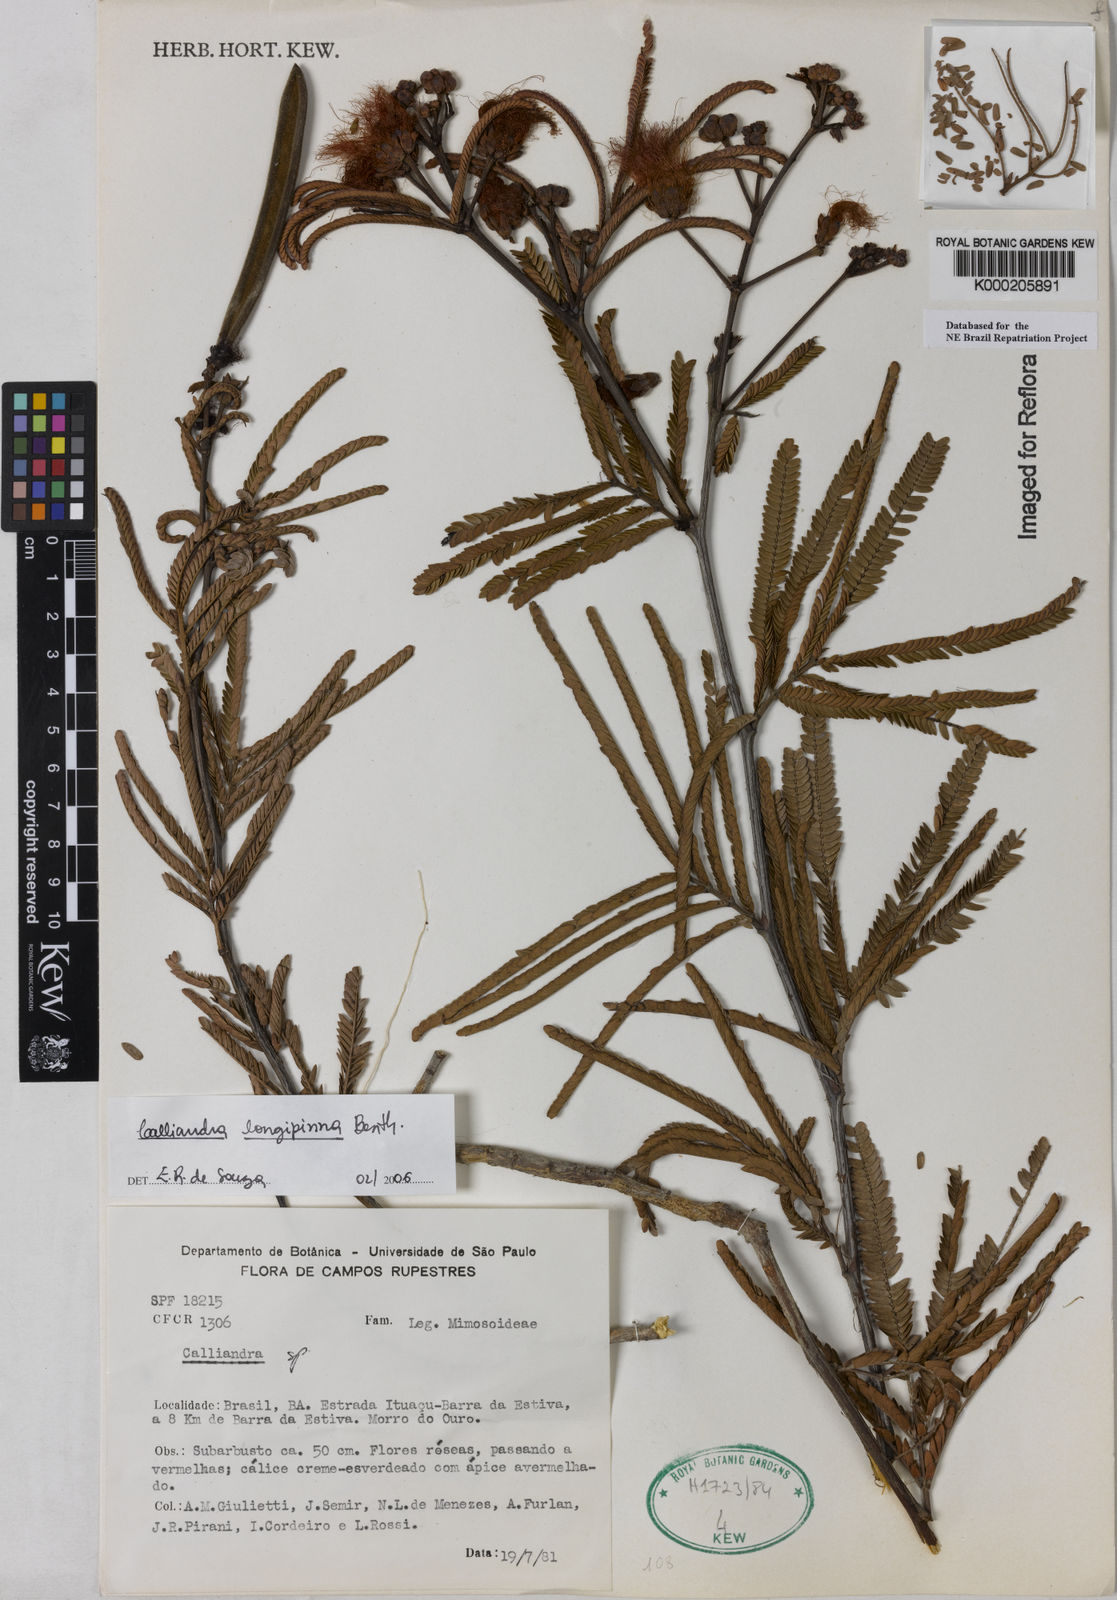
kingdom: Plantae
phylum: Tracheophyta
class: Magnoliopsida
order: Fabales
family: Fabaceae
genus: Calliandra
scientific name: Calliandra
